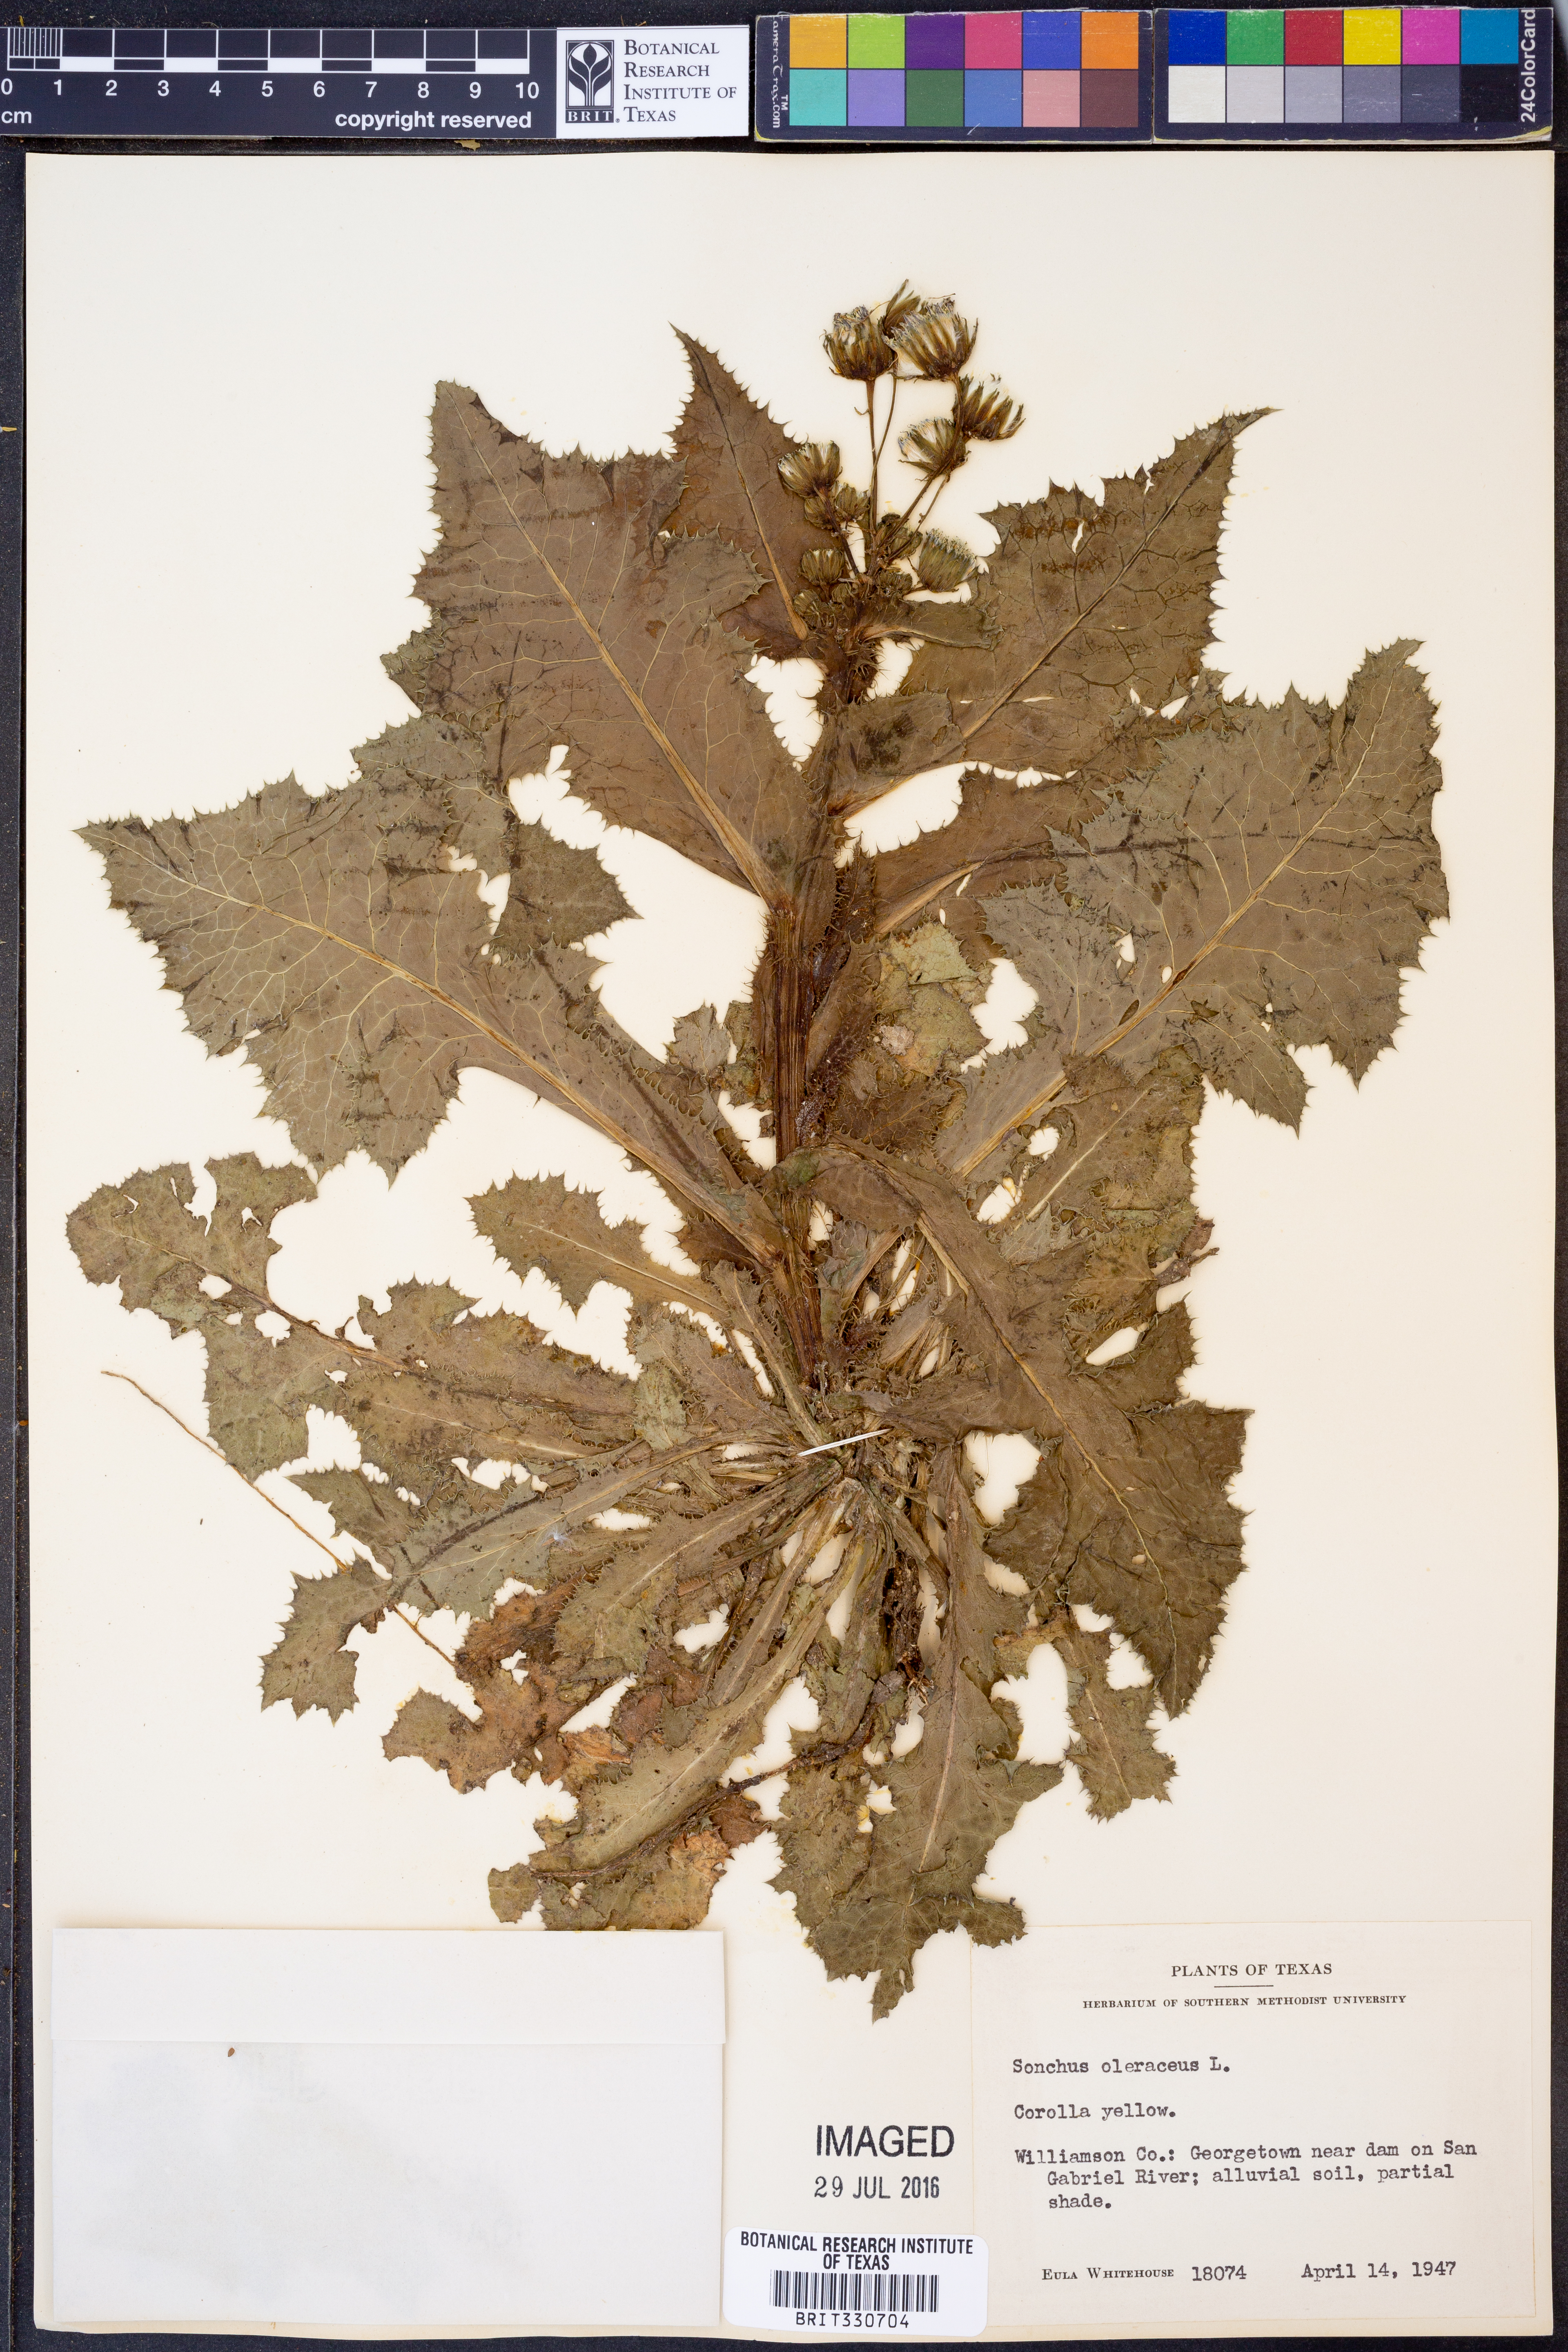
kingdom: Plantae
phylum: Tracheophyta
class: Magnoliopsida
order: Asterales
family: Asteraceae
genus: Sonchus
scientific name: Sonchus oleraceus
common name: Common sowthistle
